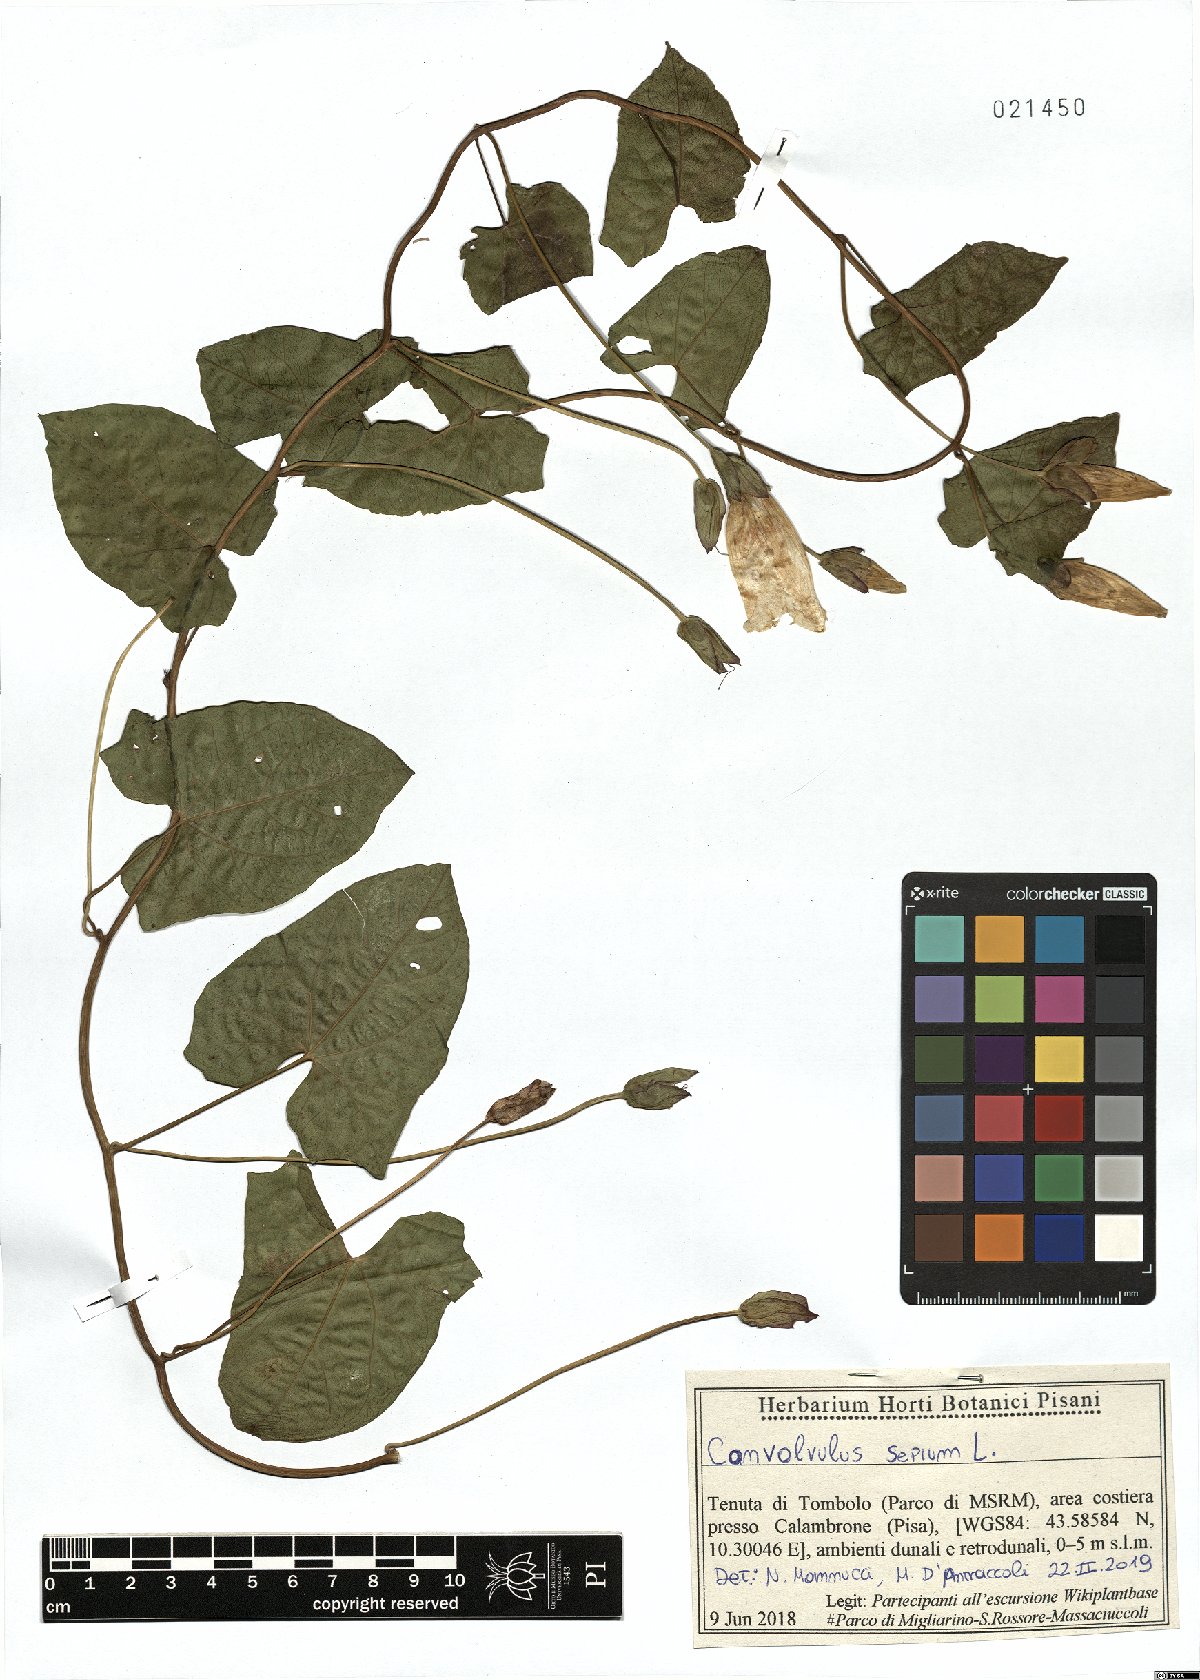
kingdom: Plantae
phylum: Tracheophyta
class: Magnoliopsida
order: Solanales
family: Convolvulaceae
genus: Calystegia
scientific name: Calystegia sepium
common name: Hedge bindweed
